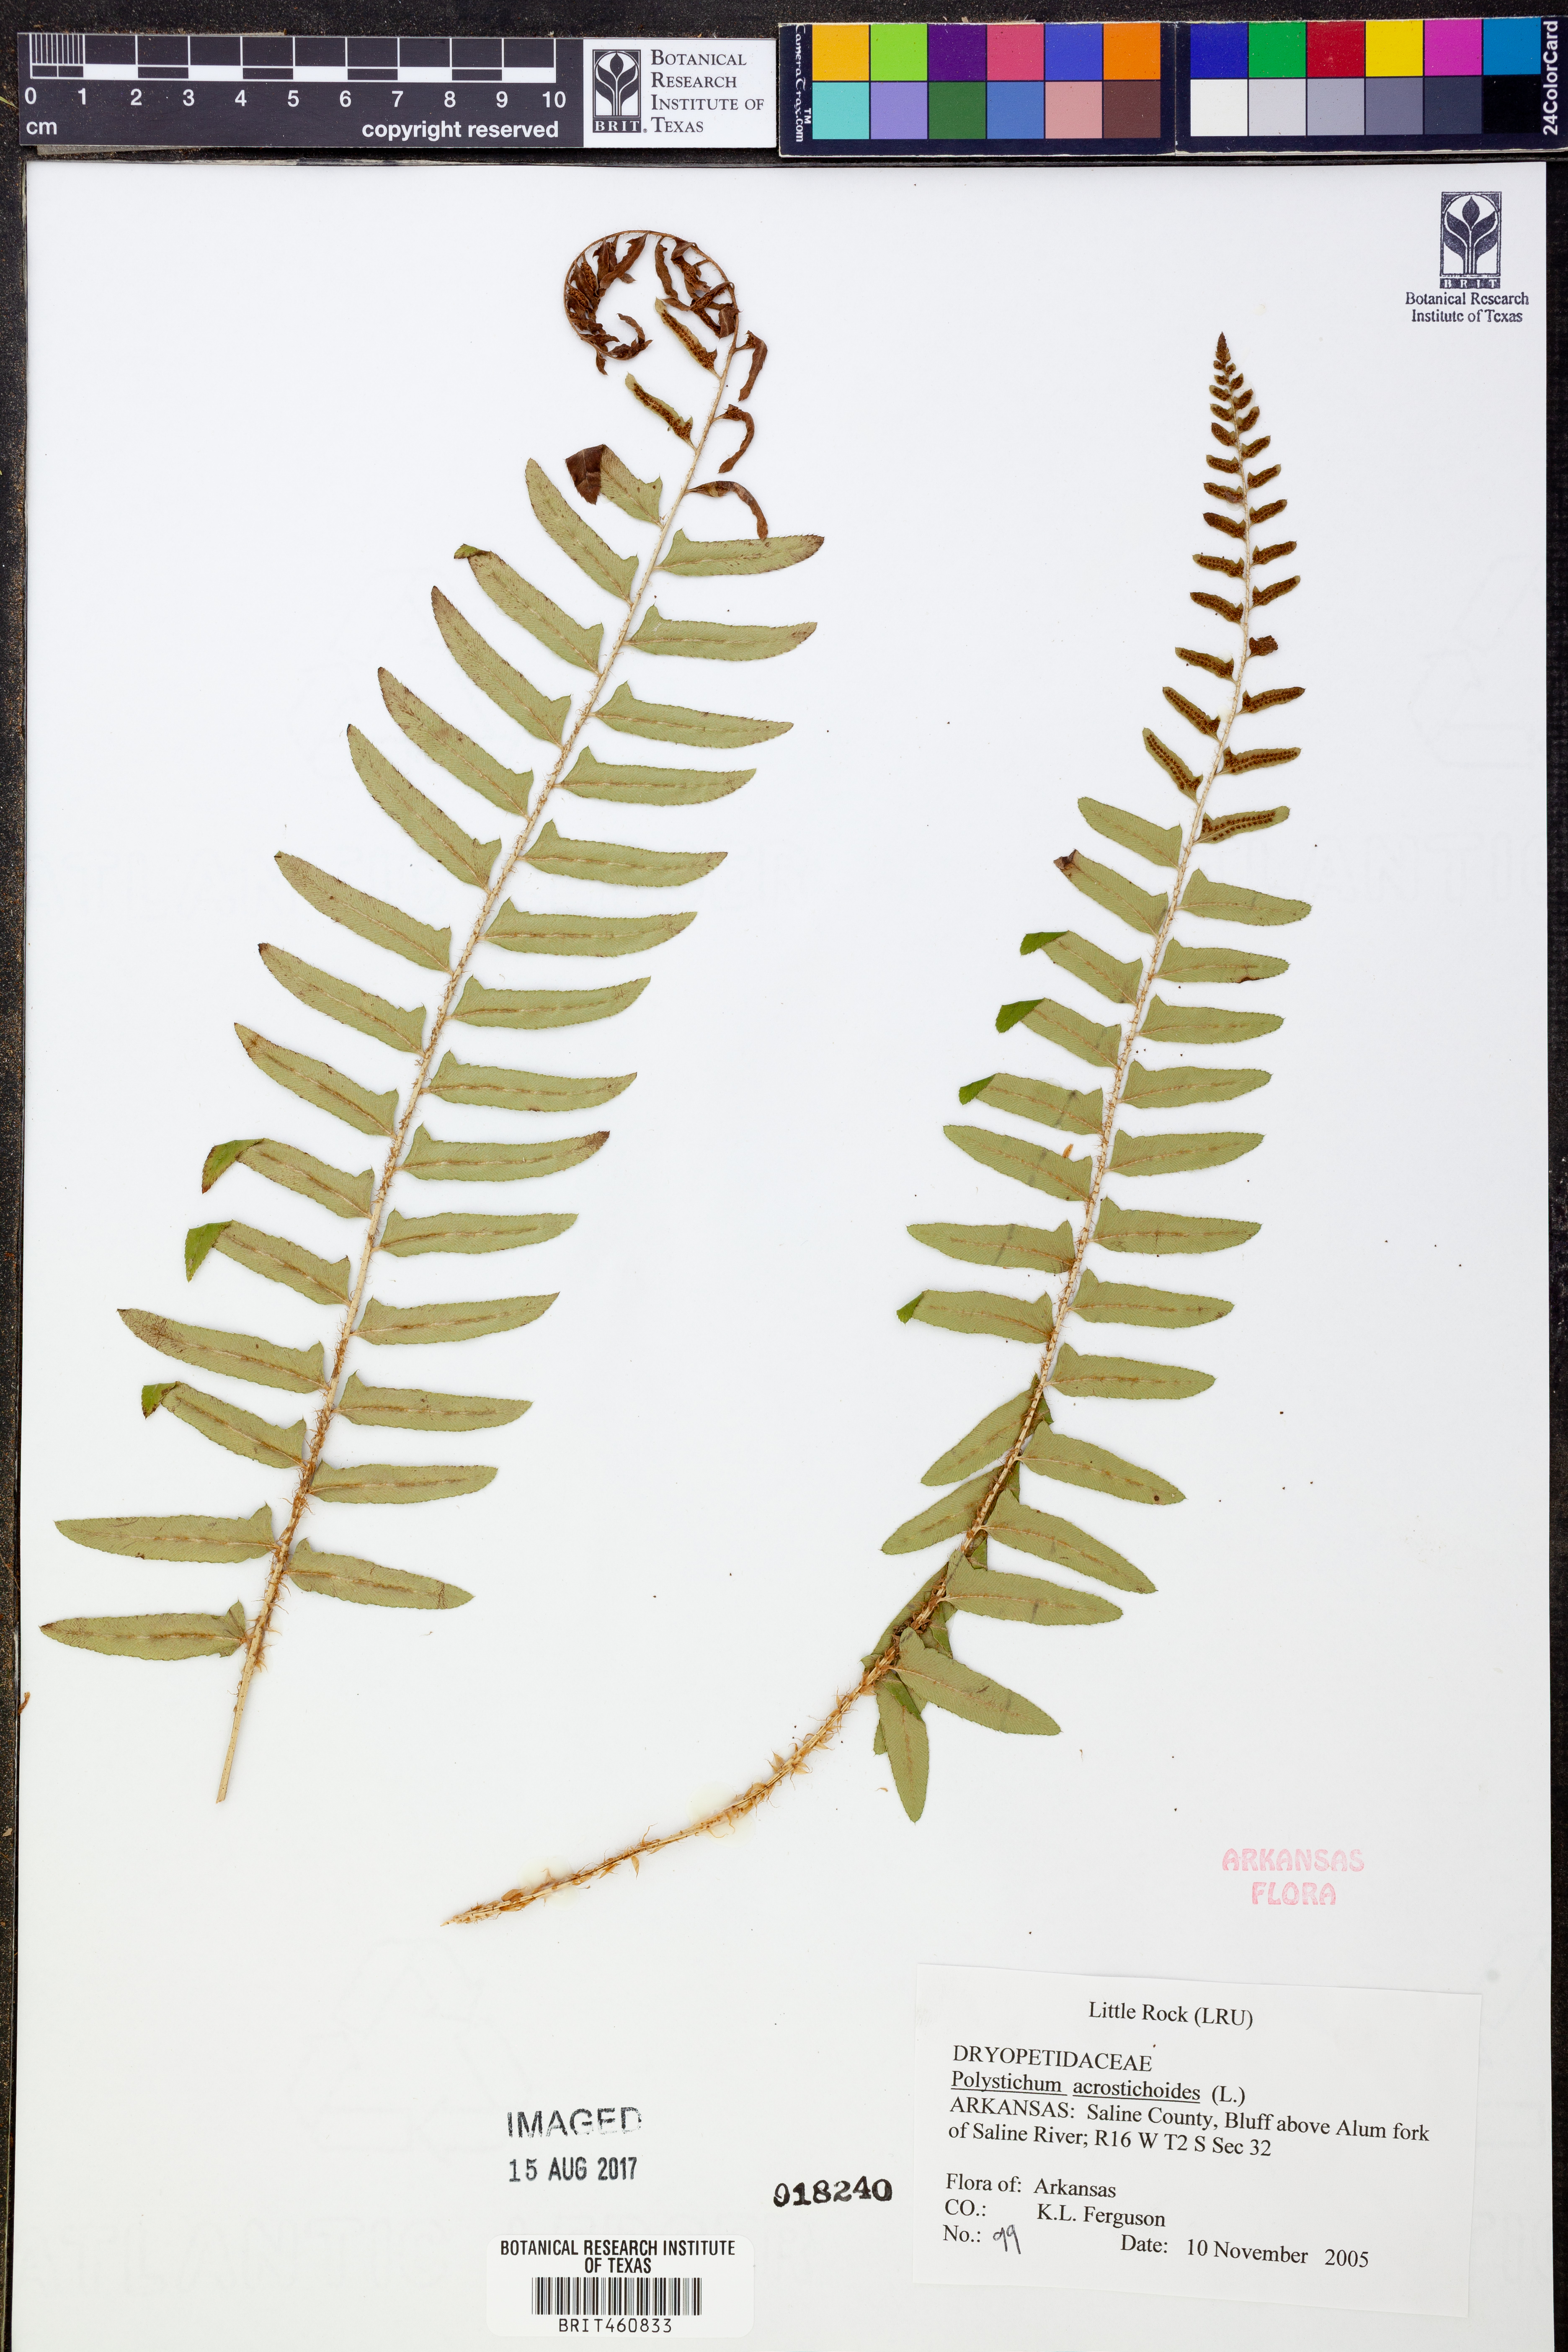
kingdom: Plantae
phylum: Tracheophyta
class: Polypodiopsida
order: Polypodiales
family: Dryopteridaceae
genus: Polystichum
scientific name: Polystichum acrostichoides
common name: Christmas fern
